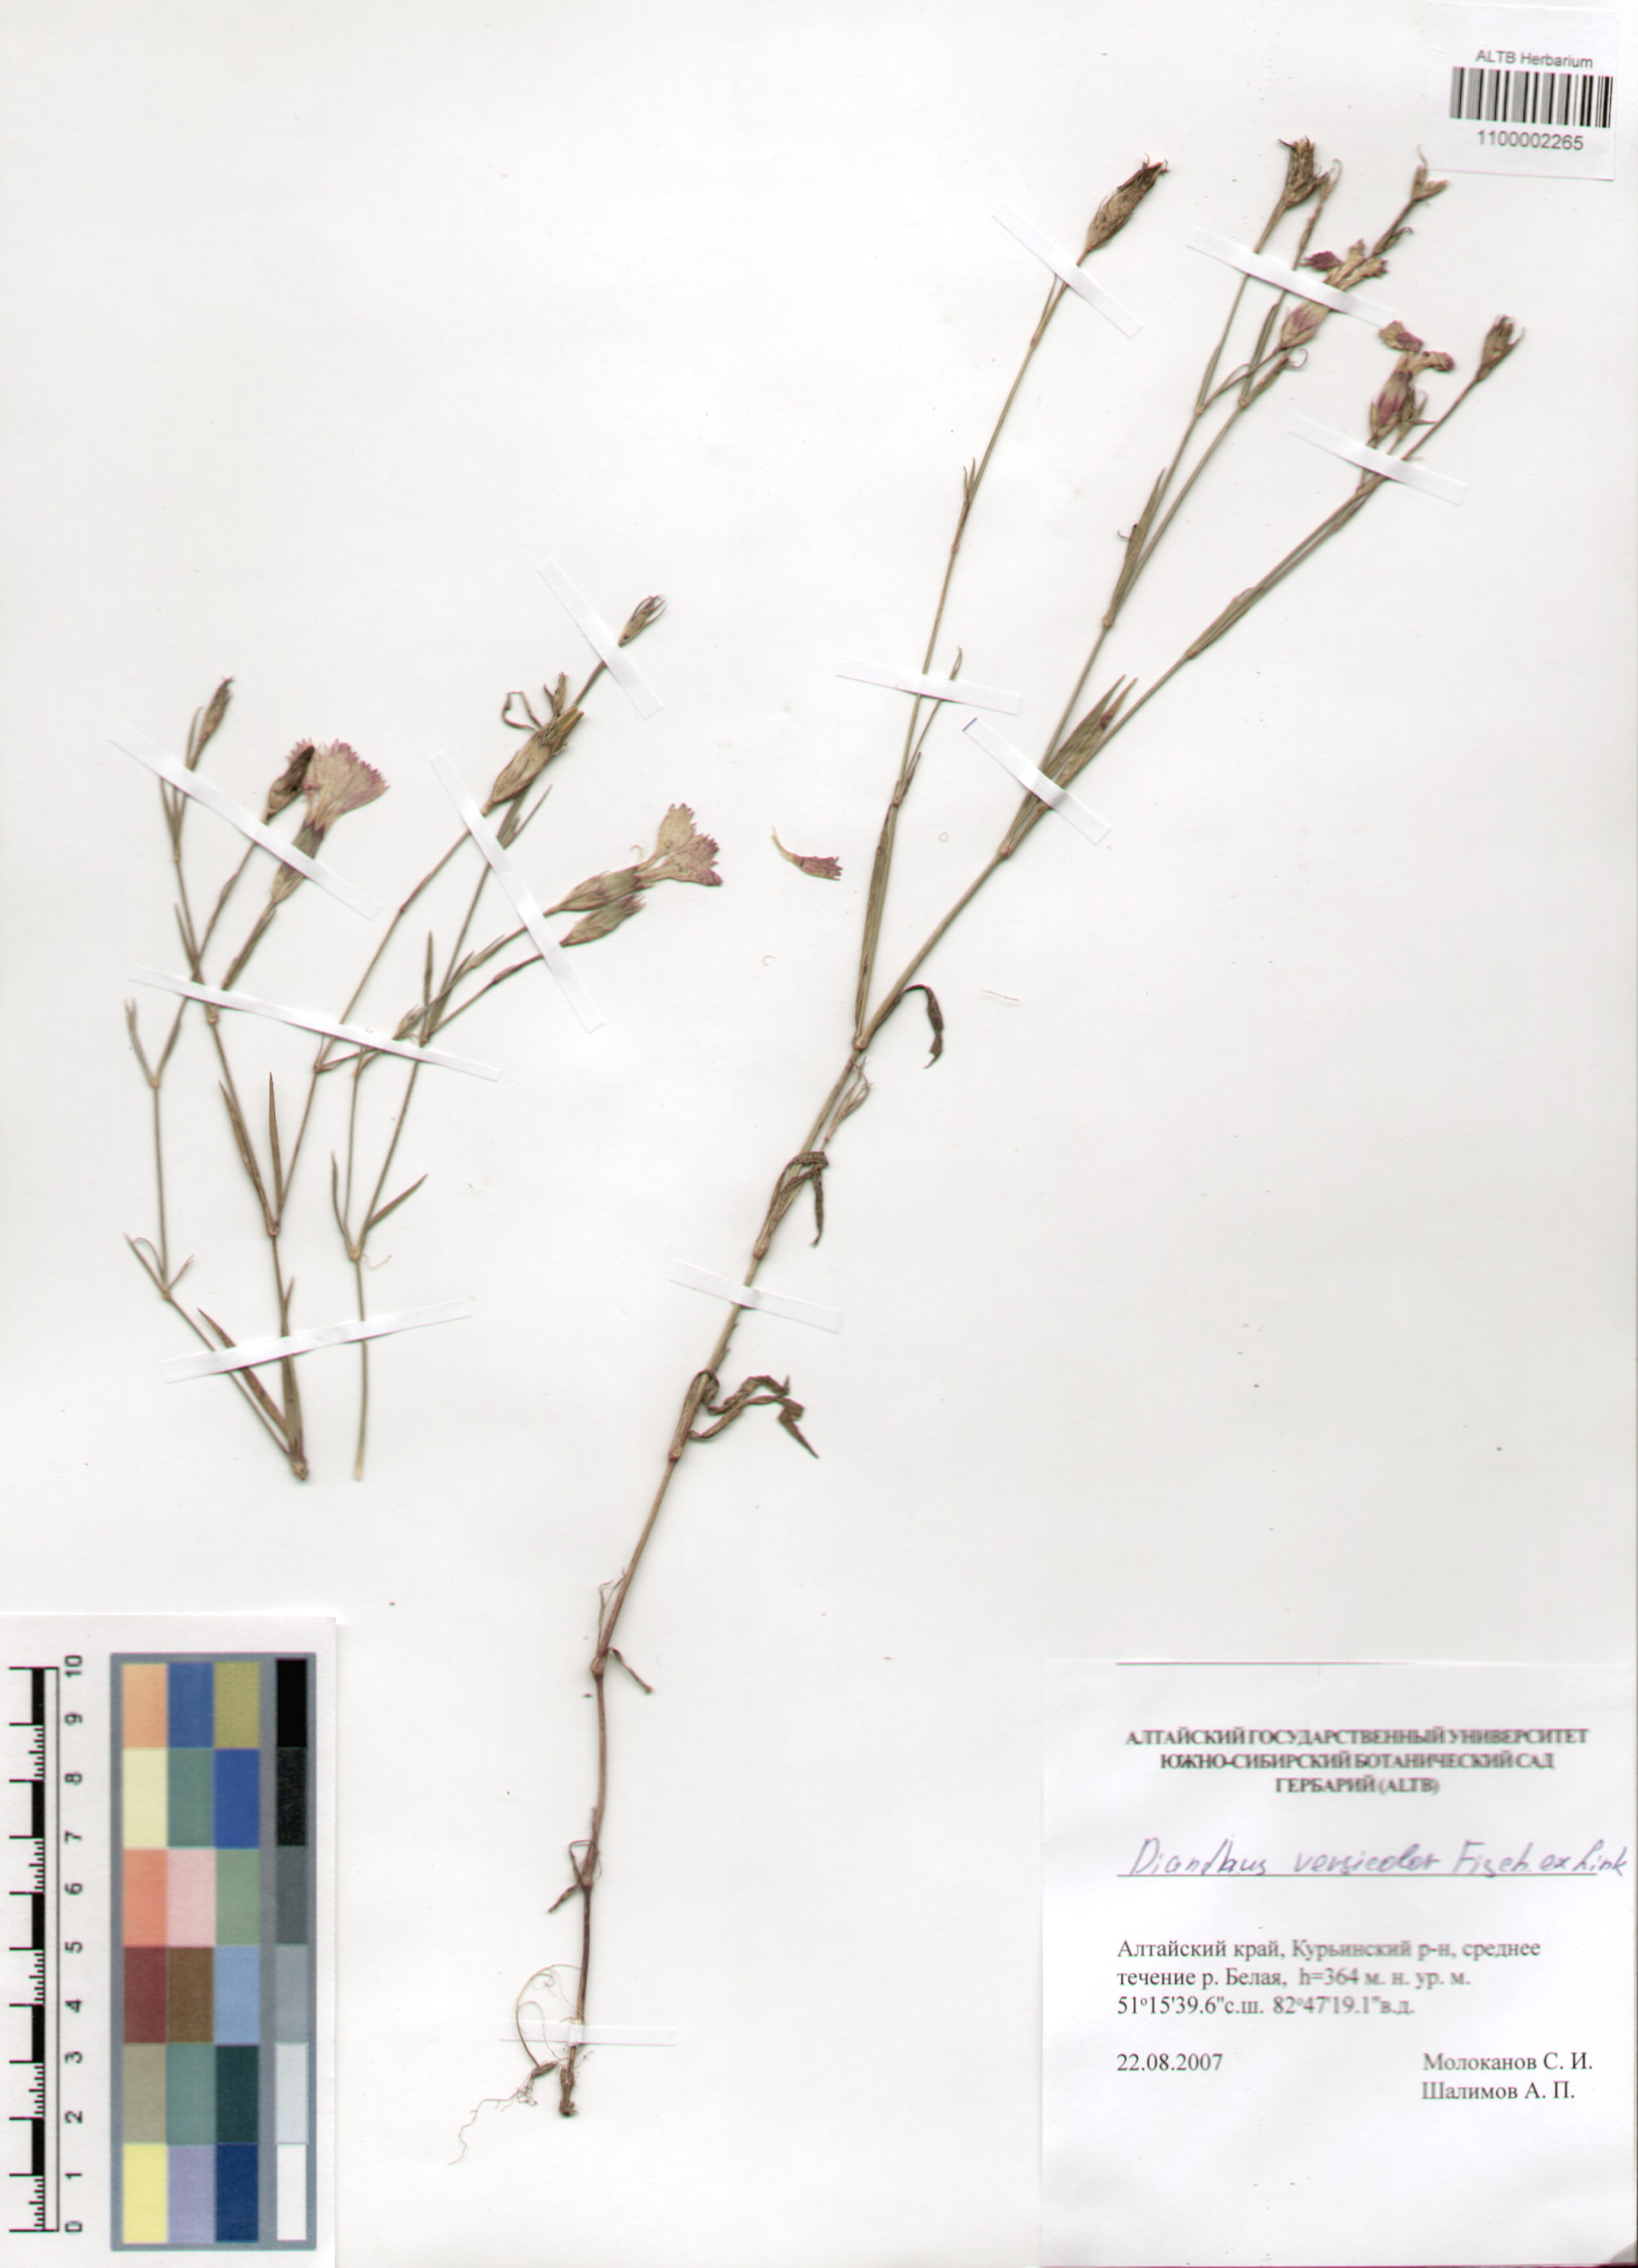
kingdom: Plantae
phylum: Tracheophyta
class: Magnoliopsida
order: Caryophyllales
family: Caryophyllaceae
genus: Dianthus
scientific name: Dianthus chinensis
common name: Rainbow pink
